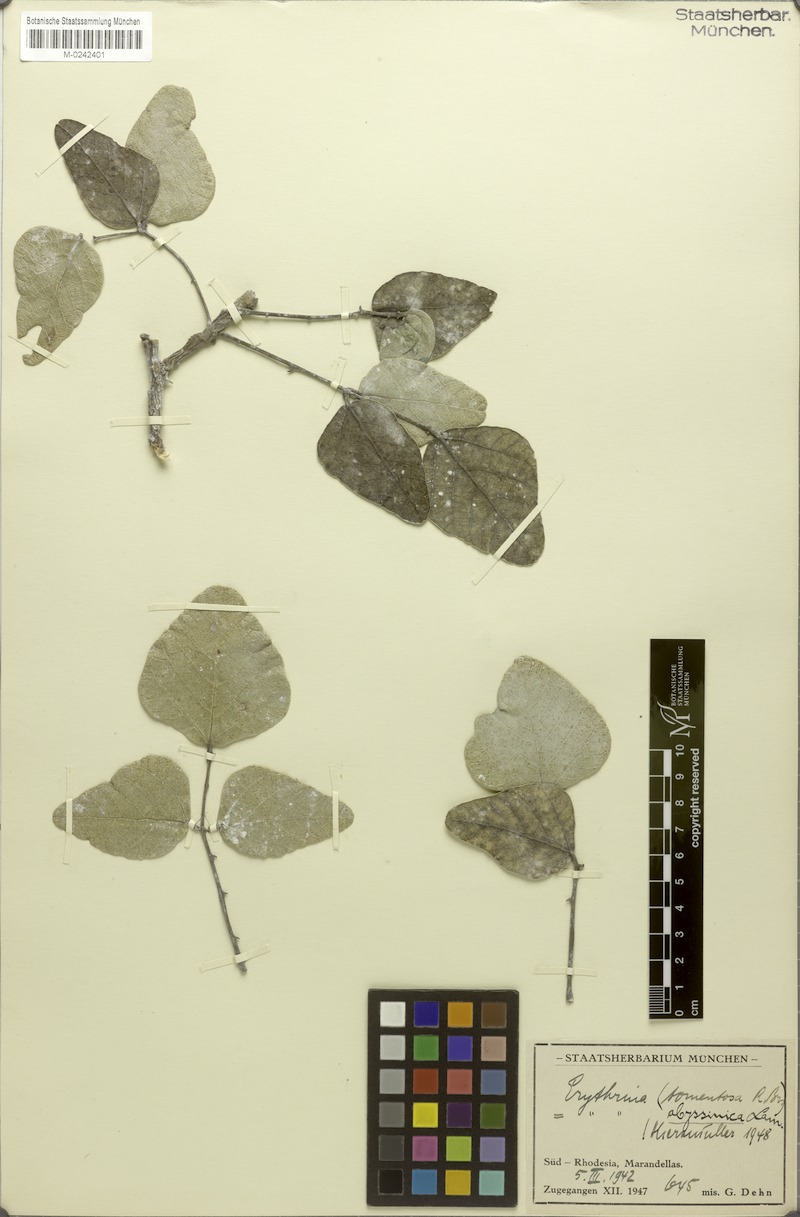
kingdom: Plantae
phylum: Tracheophyta
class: Magnoliopsida
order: Fabales
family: Fabaceae
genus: Erythrina
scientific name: Erythrina abyssinica
